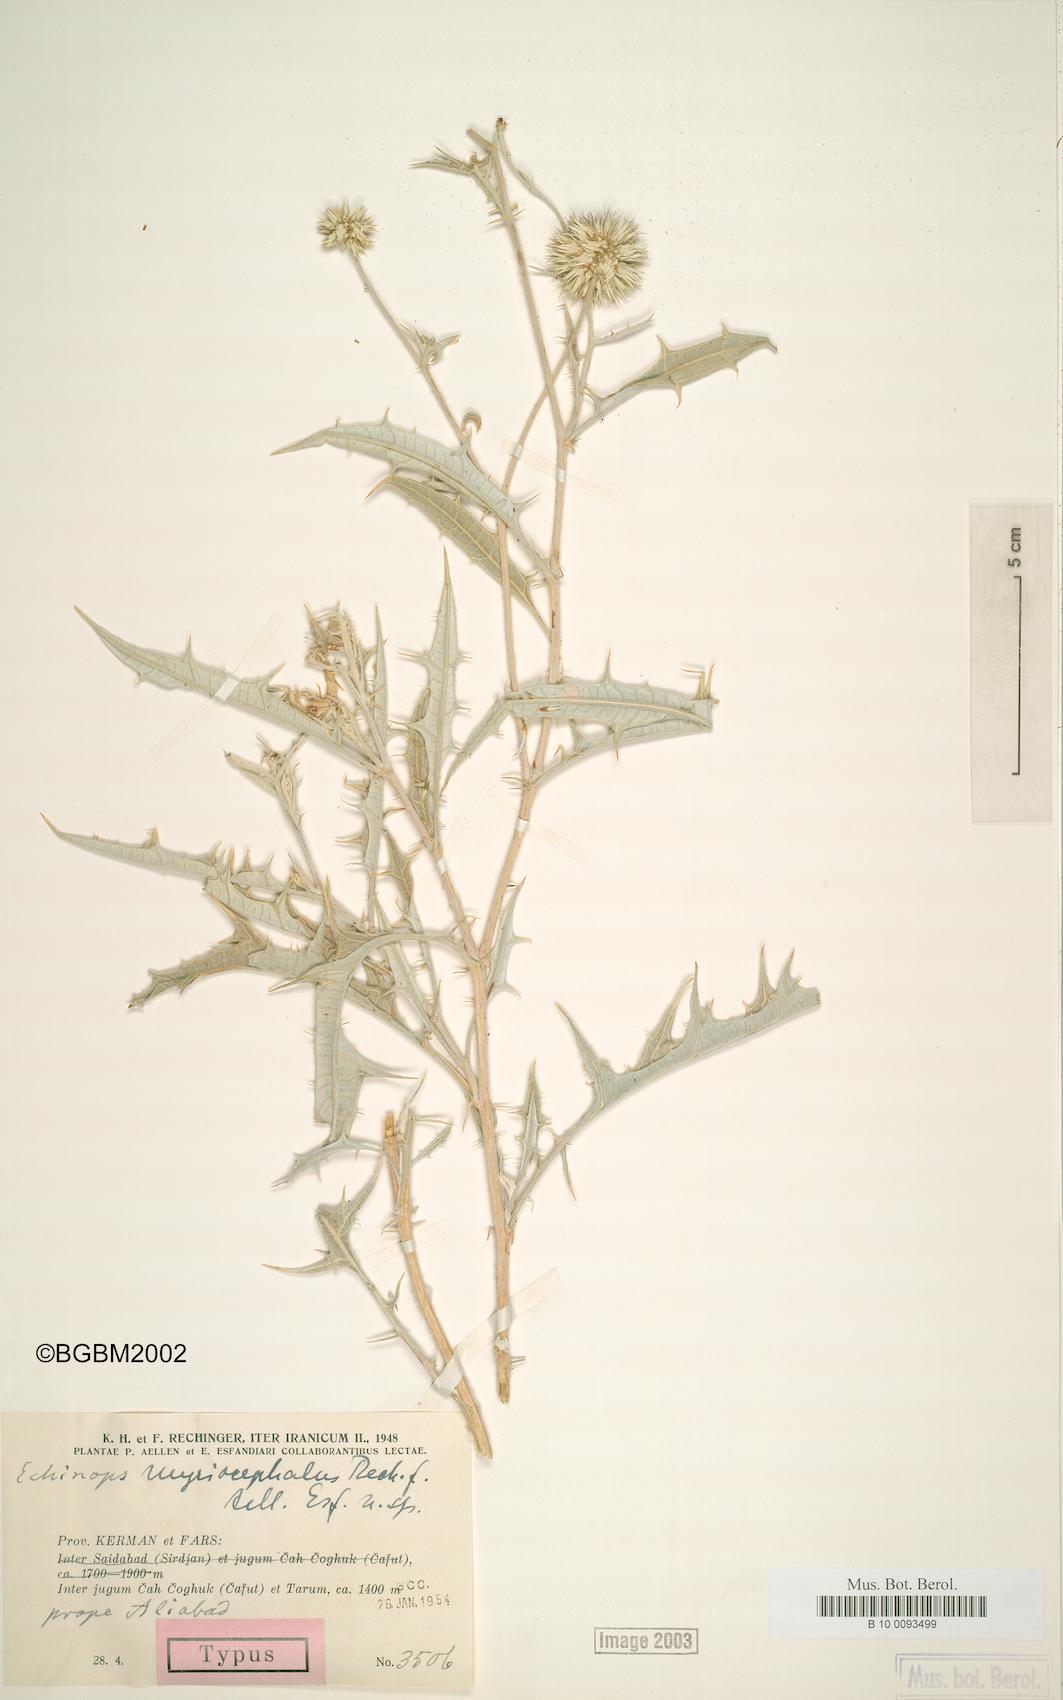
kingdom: Plantae
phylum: Tracheophyta
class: Magnoliopsida
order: Asterales
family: Asteraceae
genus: Echinops
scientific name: Echinops aucheri
